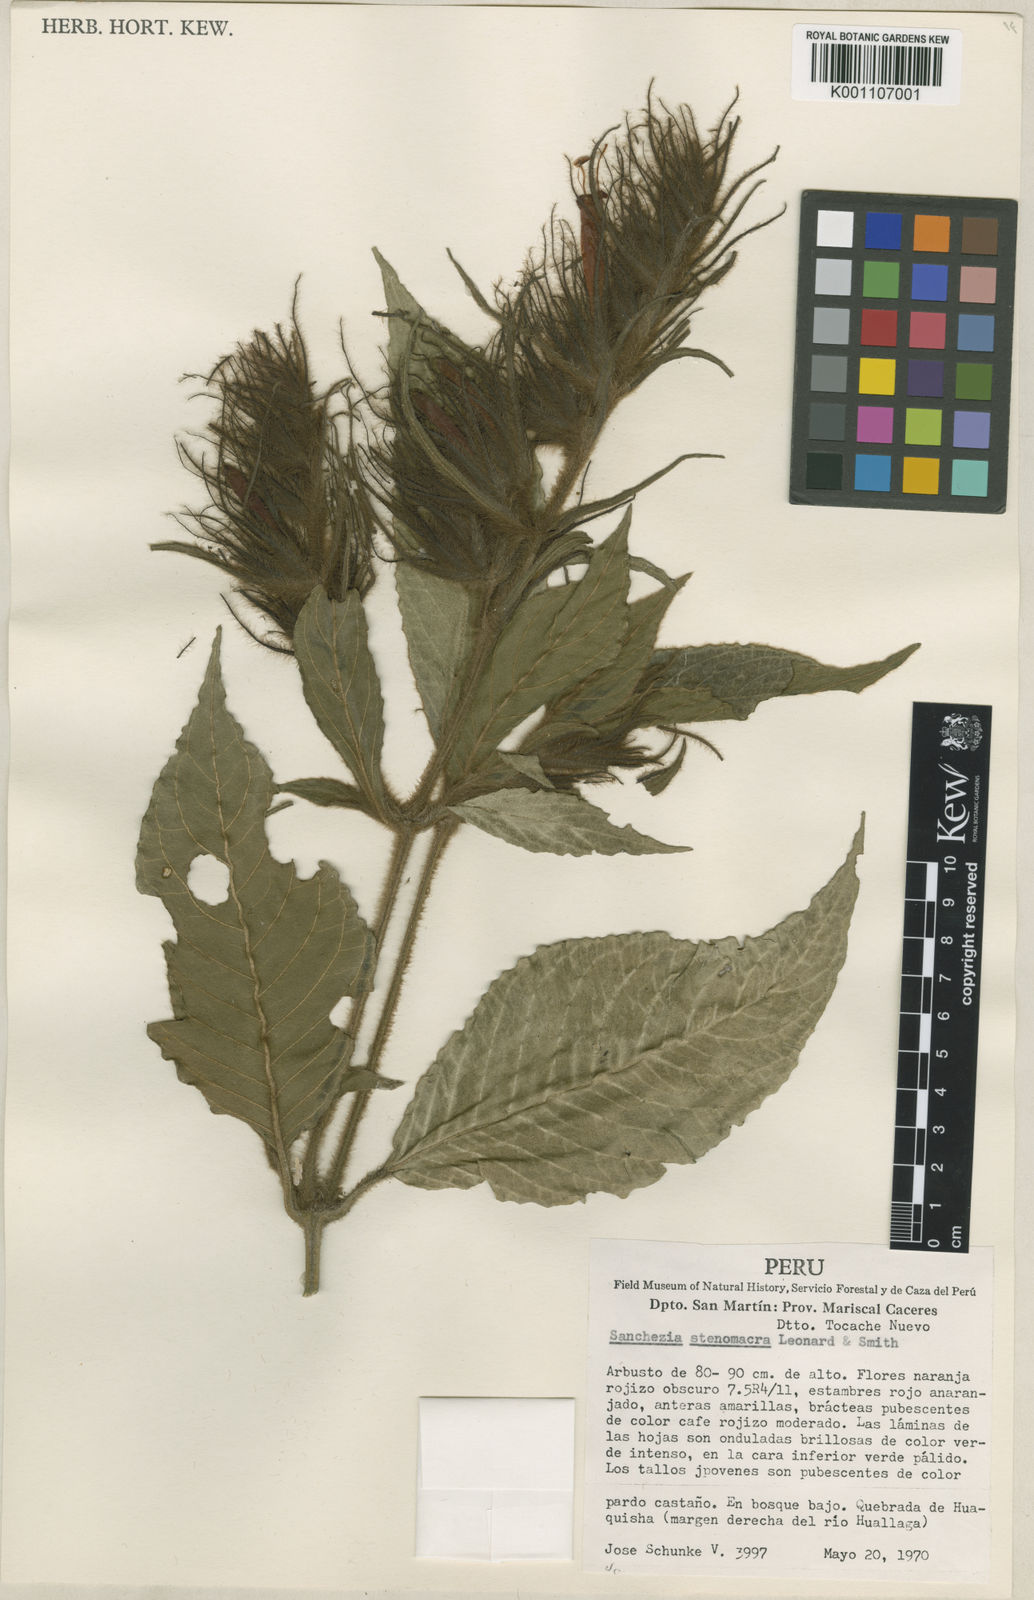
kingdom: Plantae
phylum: Tracheophyta
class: Magnoliopsida
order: Lamiales
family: Acanthaceae
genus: Sanchezia
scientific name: Sanchezia aurea
